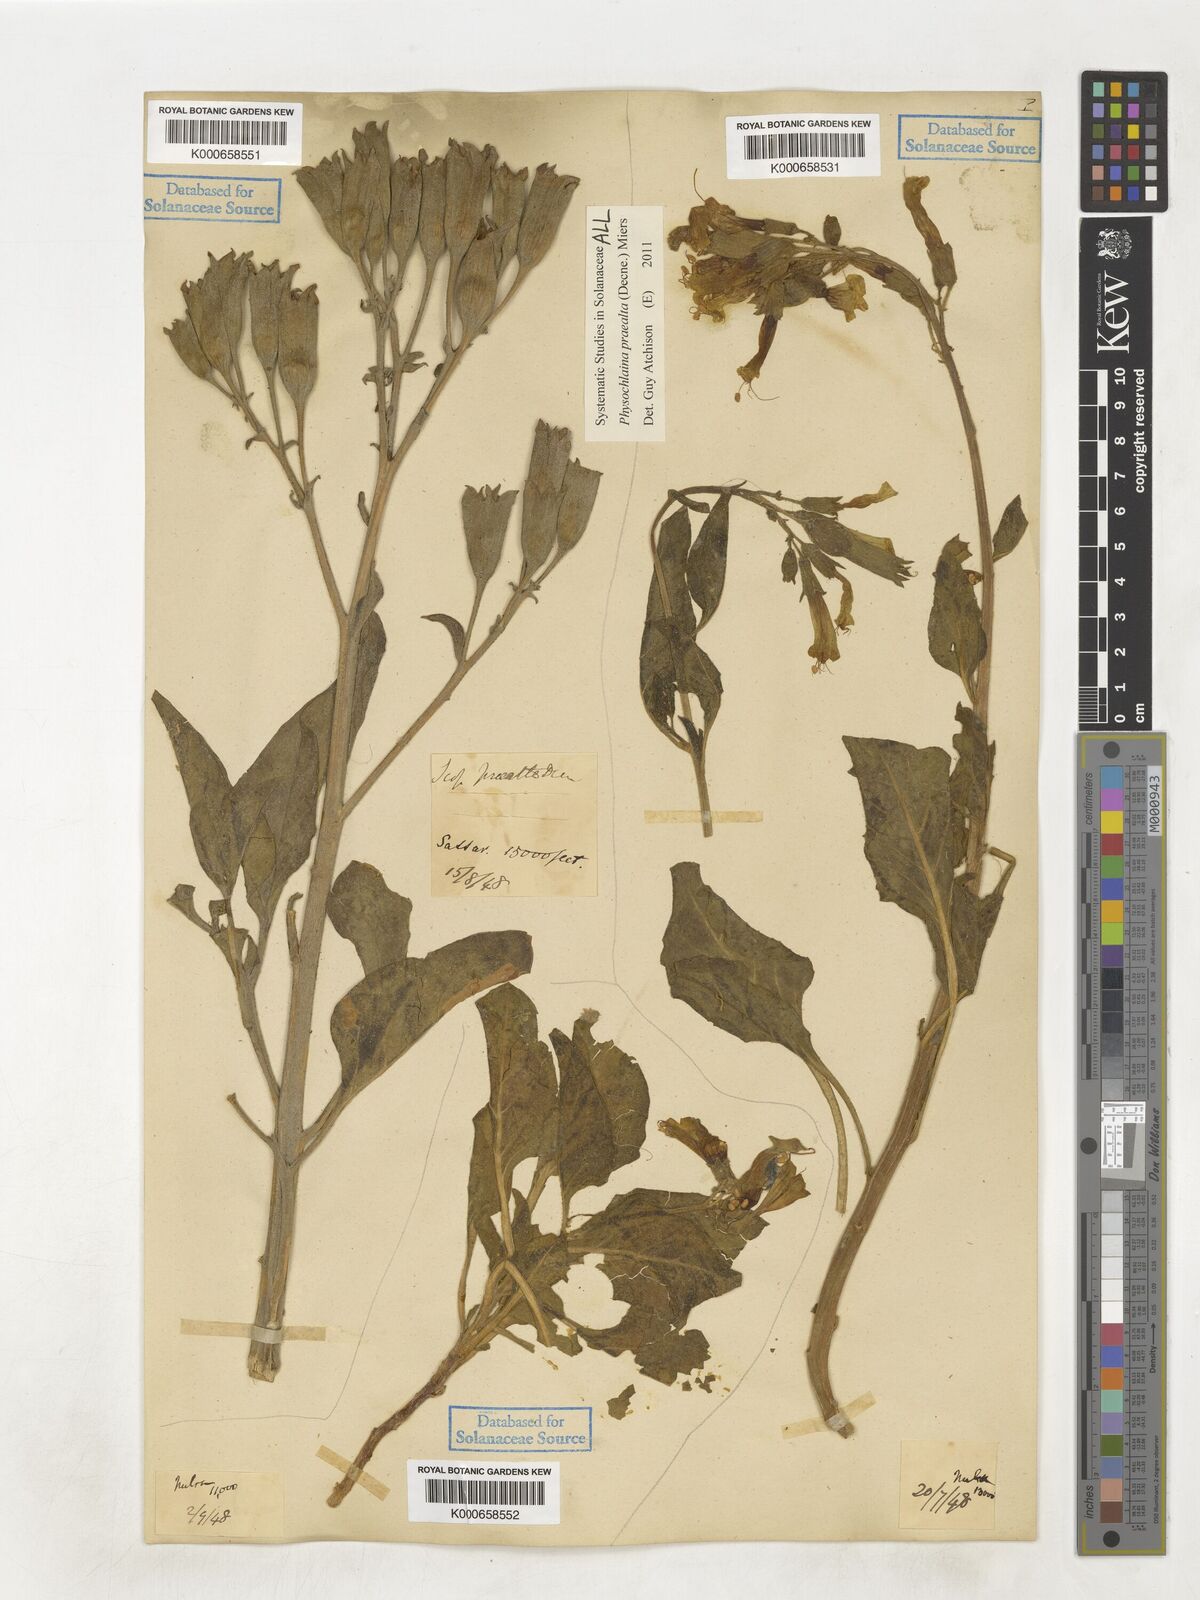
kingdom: Plantae
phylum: Tracheophyta
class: Magnoliopsida
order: Solanales
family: Solanaceae
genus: Physochlaina
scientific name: Physochlaina praealta
